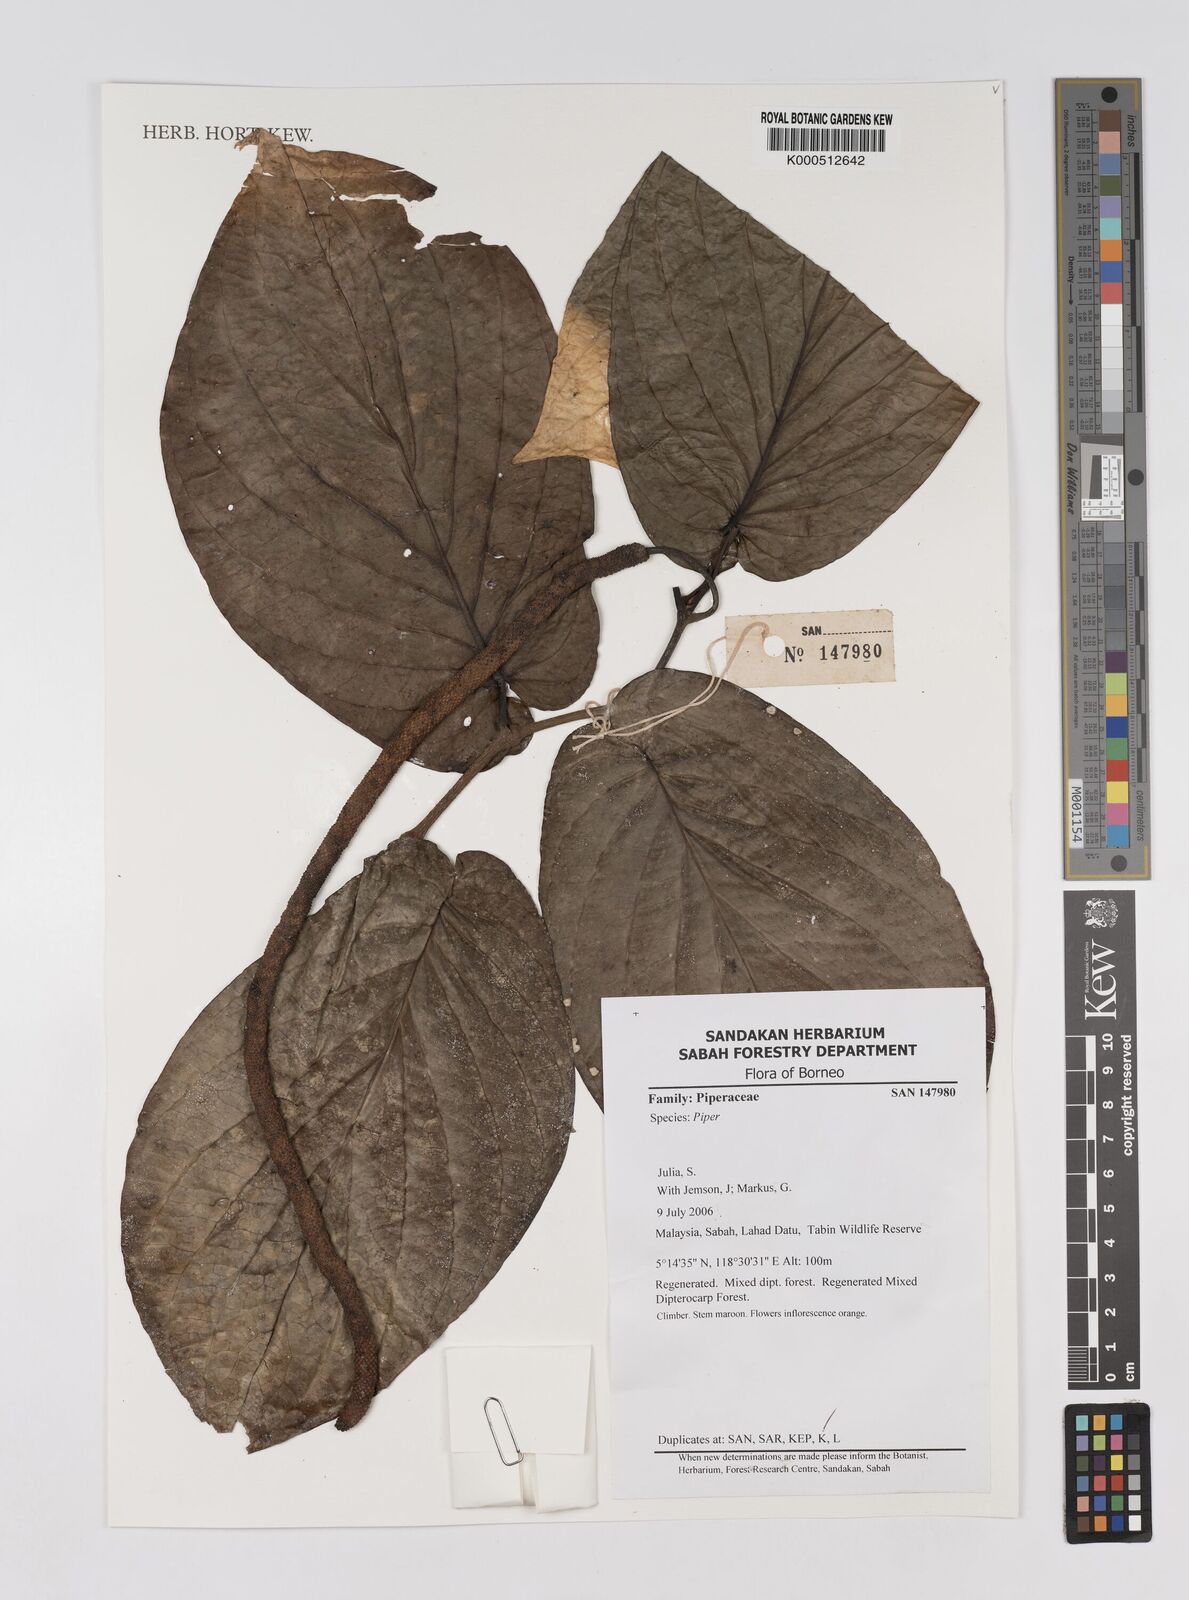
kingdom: Plantae
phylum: Tracheophyta
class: Magnoliopsida
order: Piperales
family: Piperaceae
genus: Piper
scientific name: Piper
